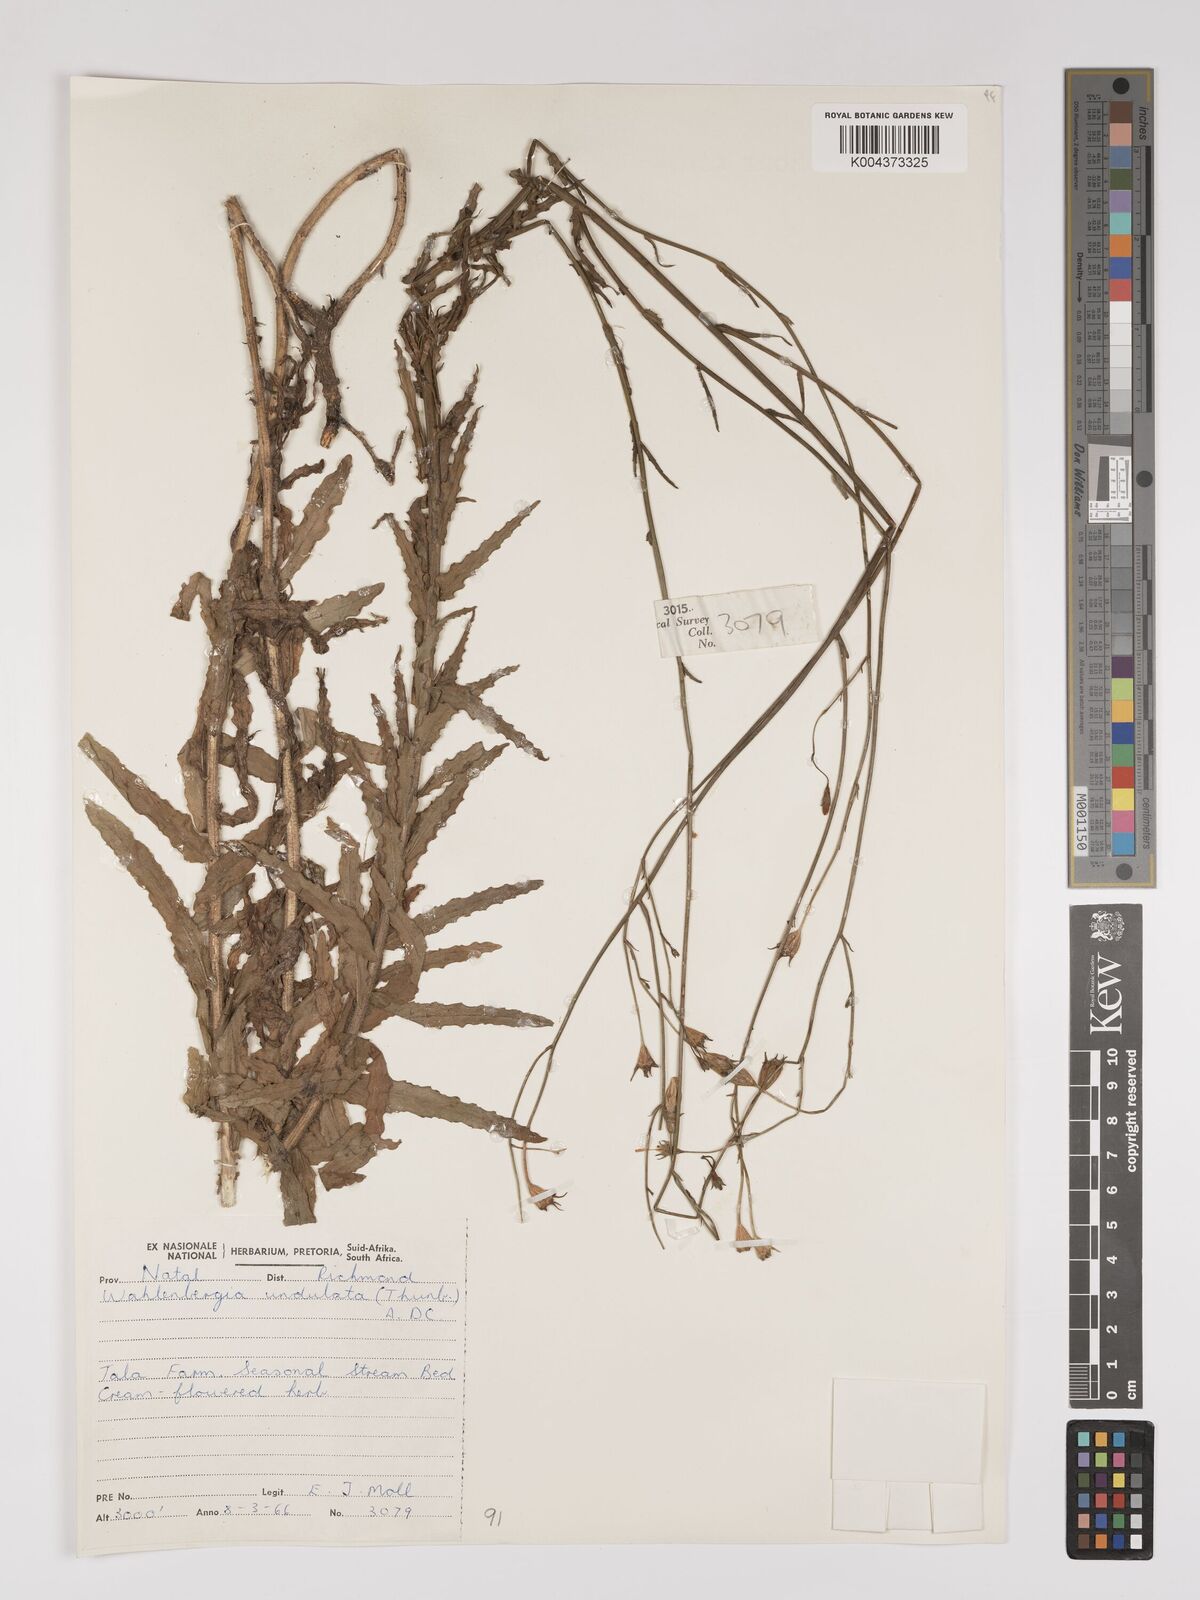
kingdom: Plantae
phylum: Tracheophyta
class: Magnoliopsida
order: Asterales
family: Campanulaceae
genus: Wahlenbergia
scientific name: Wahlenbergia undulata
